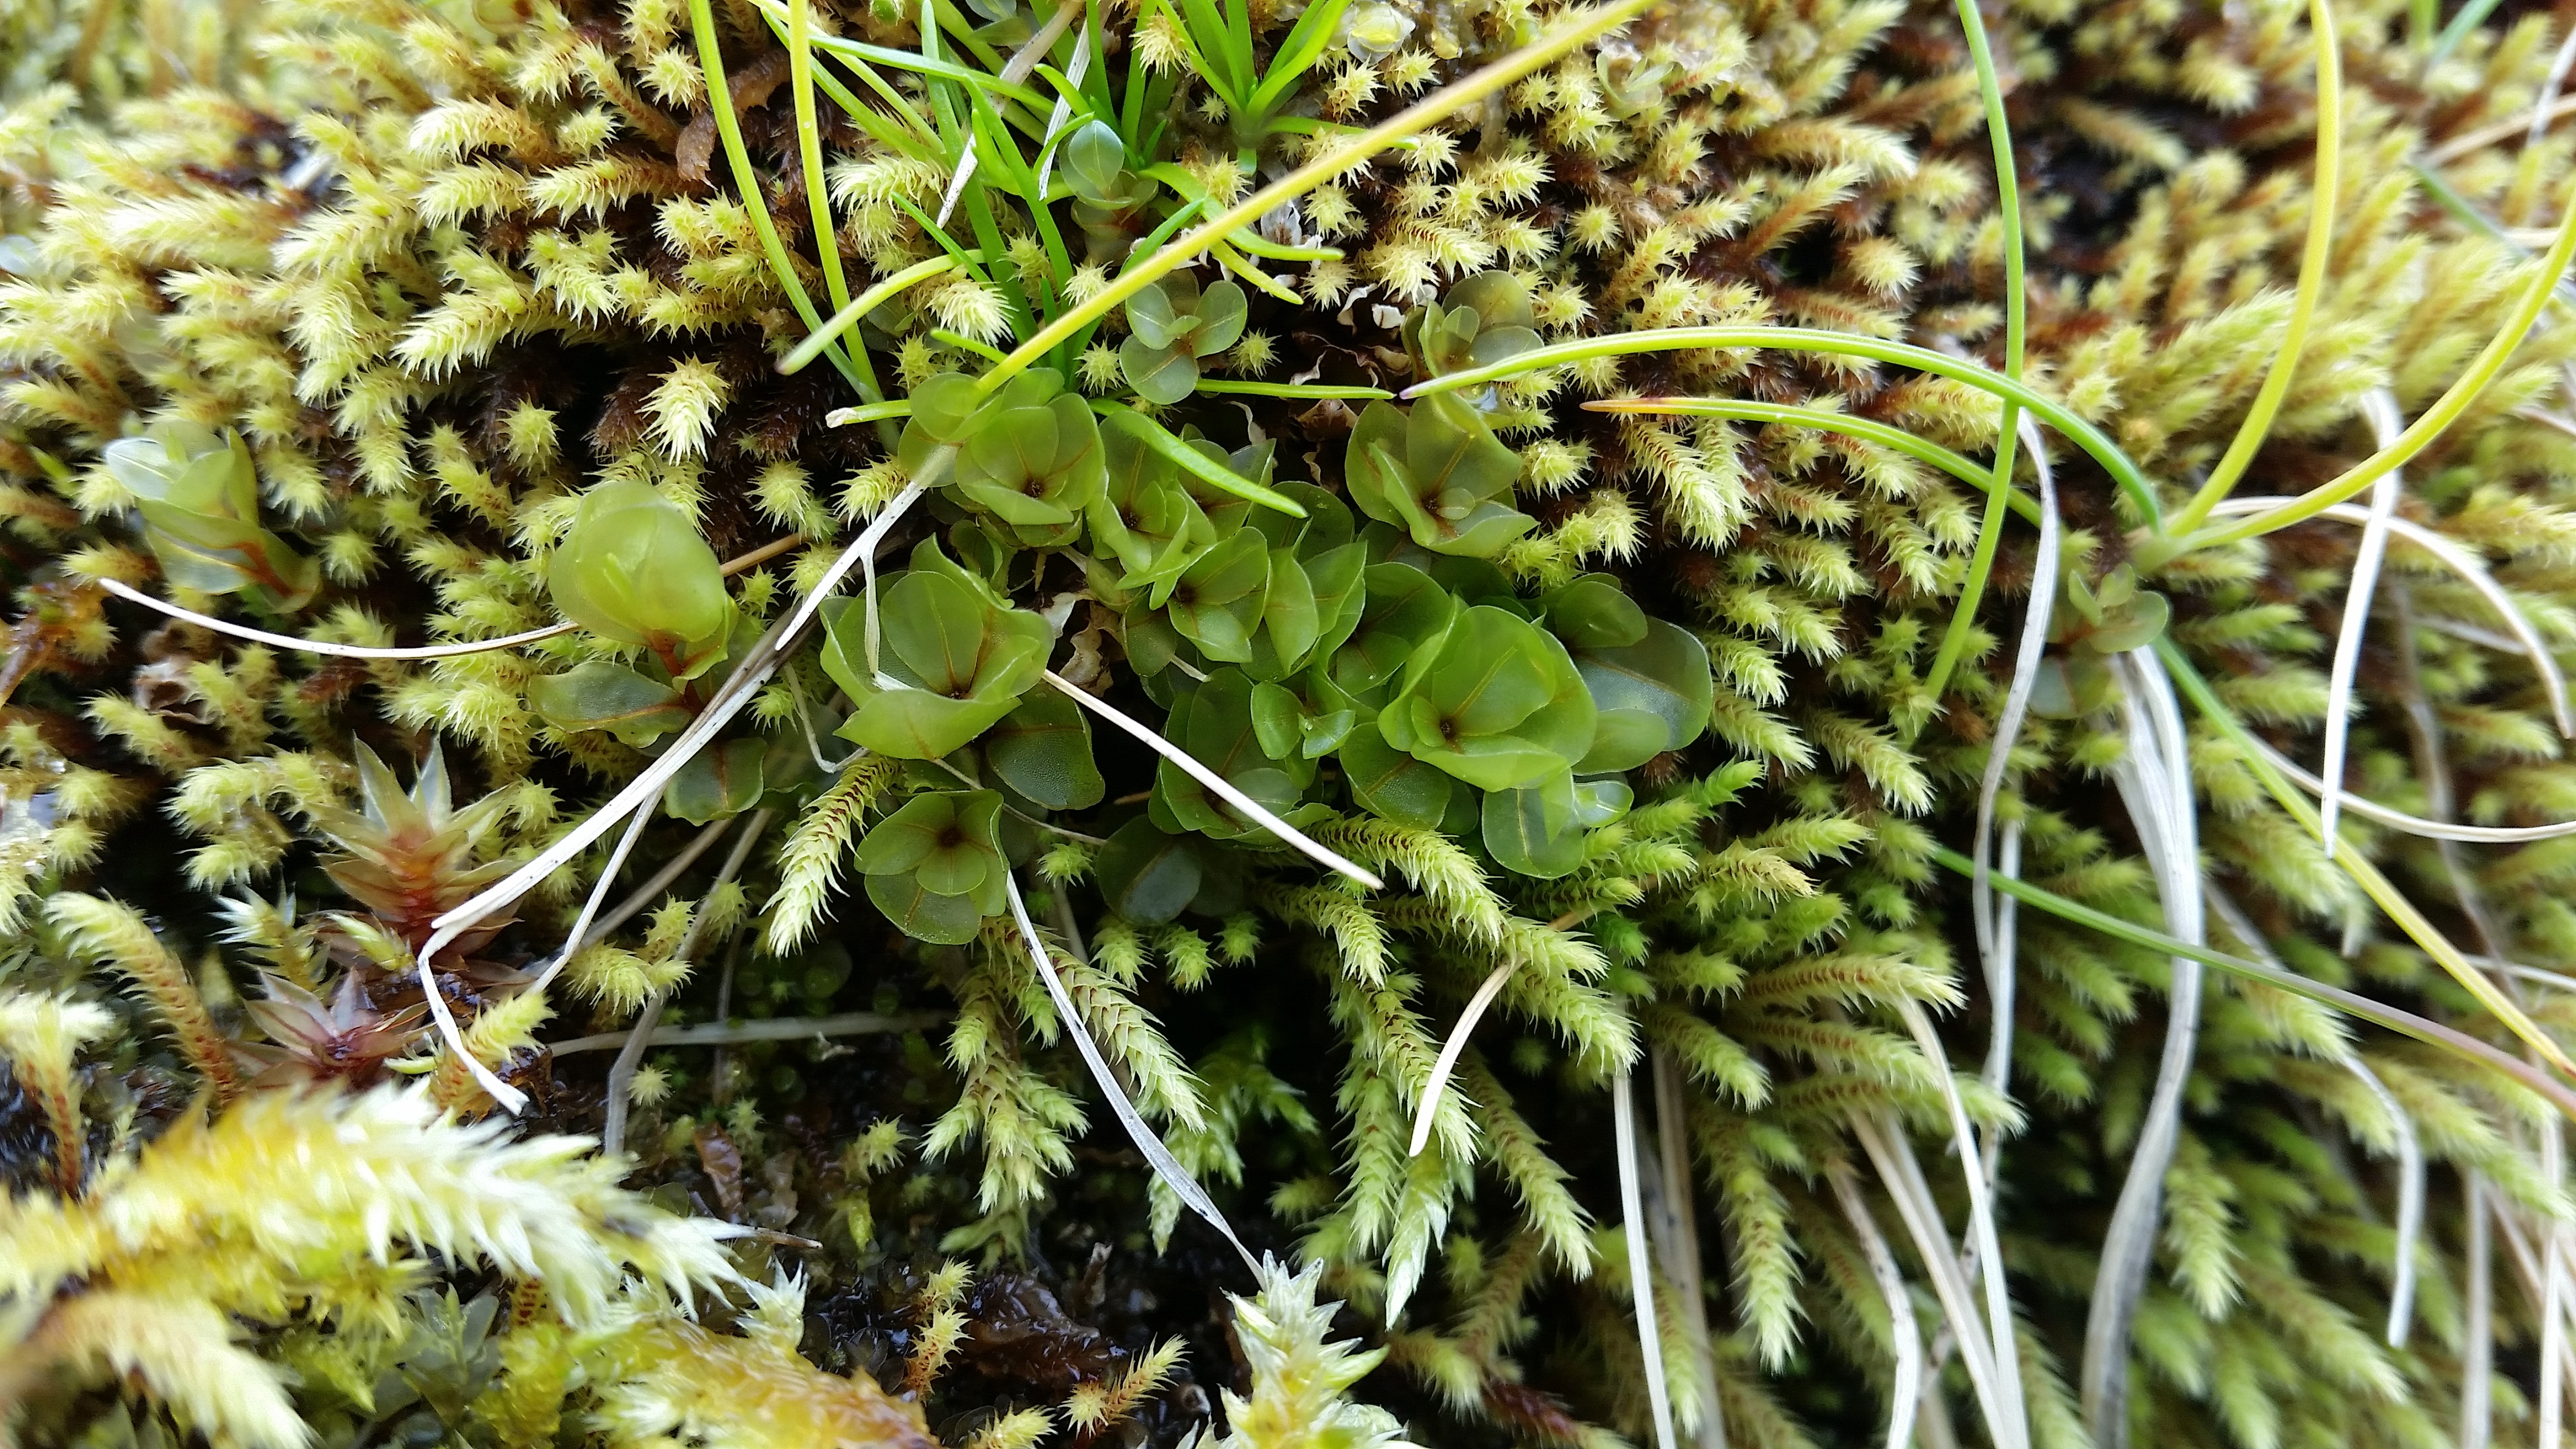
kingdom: Plantae
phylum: Bryophyta
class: Bryopsida
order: Bryales
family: Mniaceae
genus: Rhizomnium
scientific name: Rhizomnium pseudopunctatum
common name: Felted leafy moss
